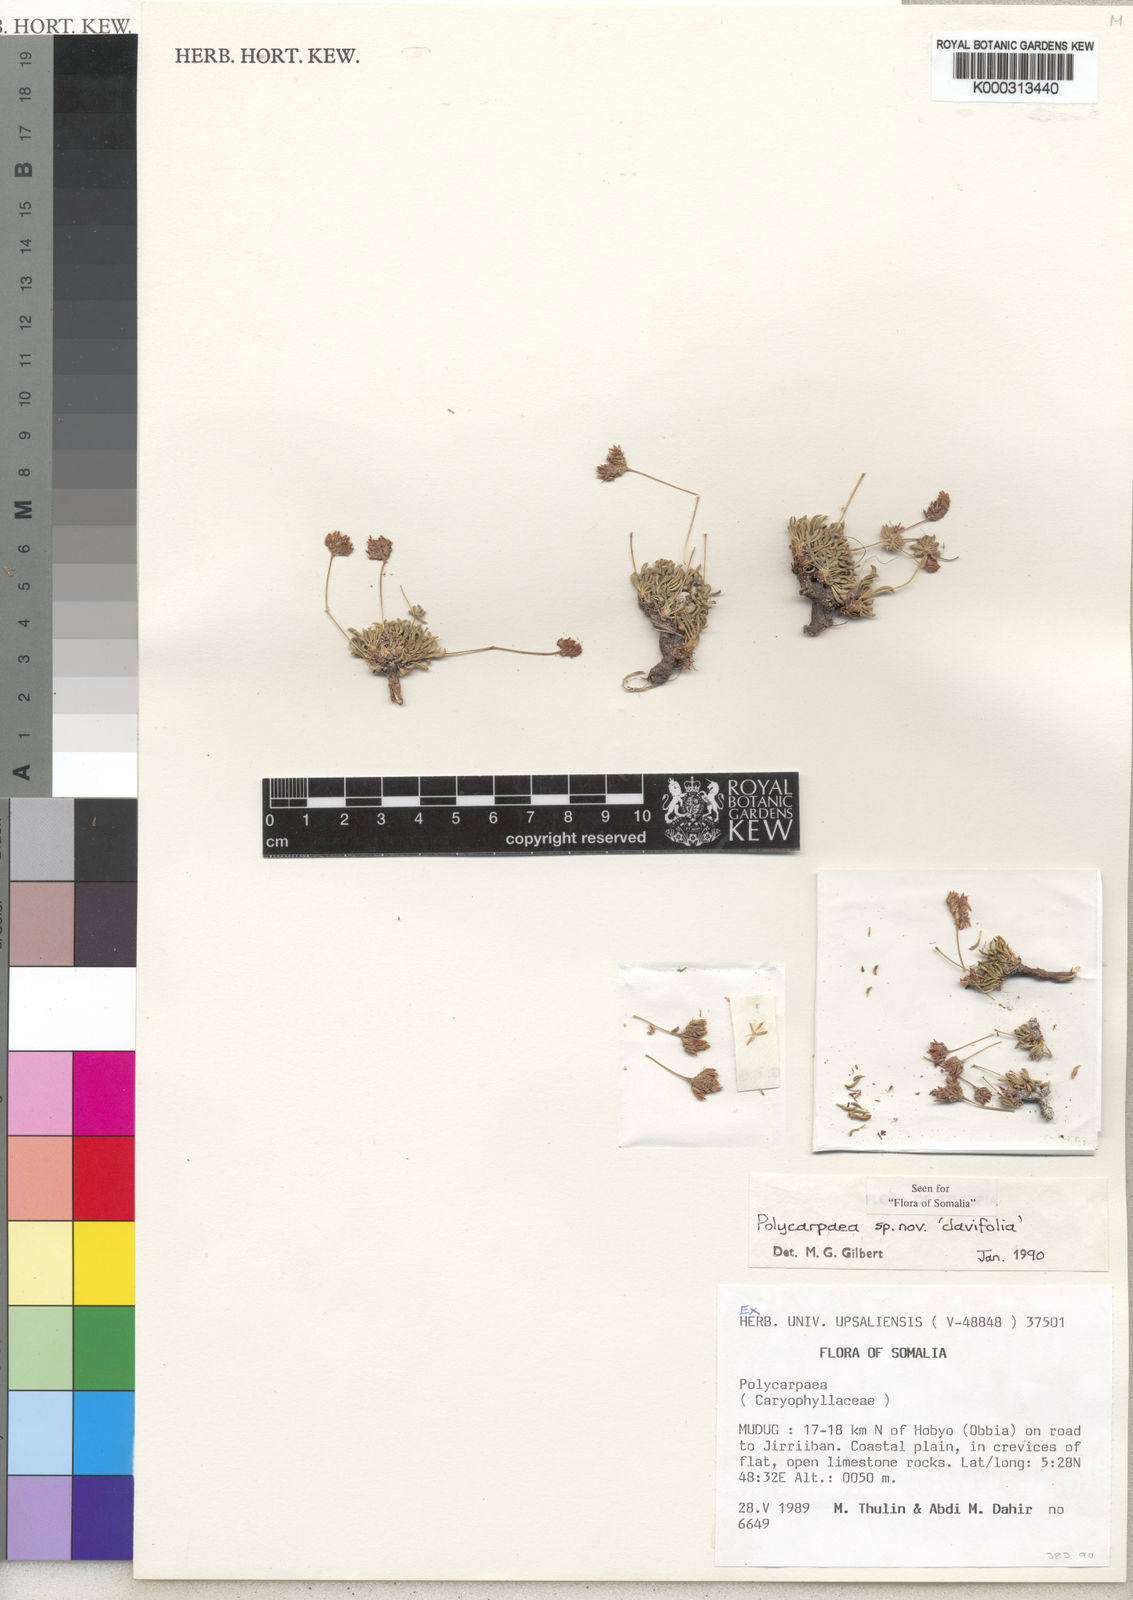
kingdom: Plantae
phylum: Tracheophyta
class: Magnoliopsida
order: Caryophyllales
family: Caryophyllaceae
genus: Polycarpaea
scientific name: Polycarpaea clavifolia
